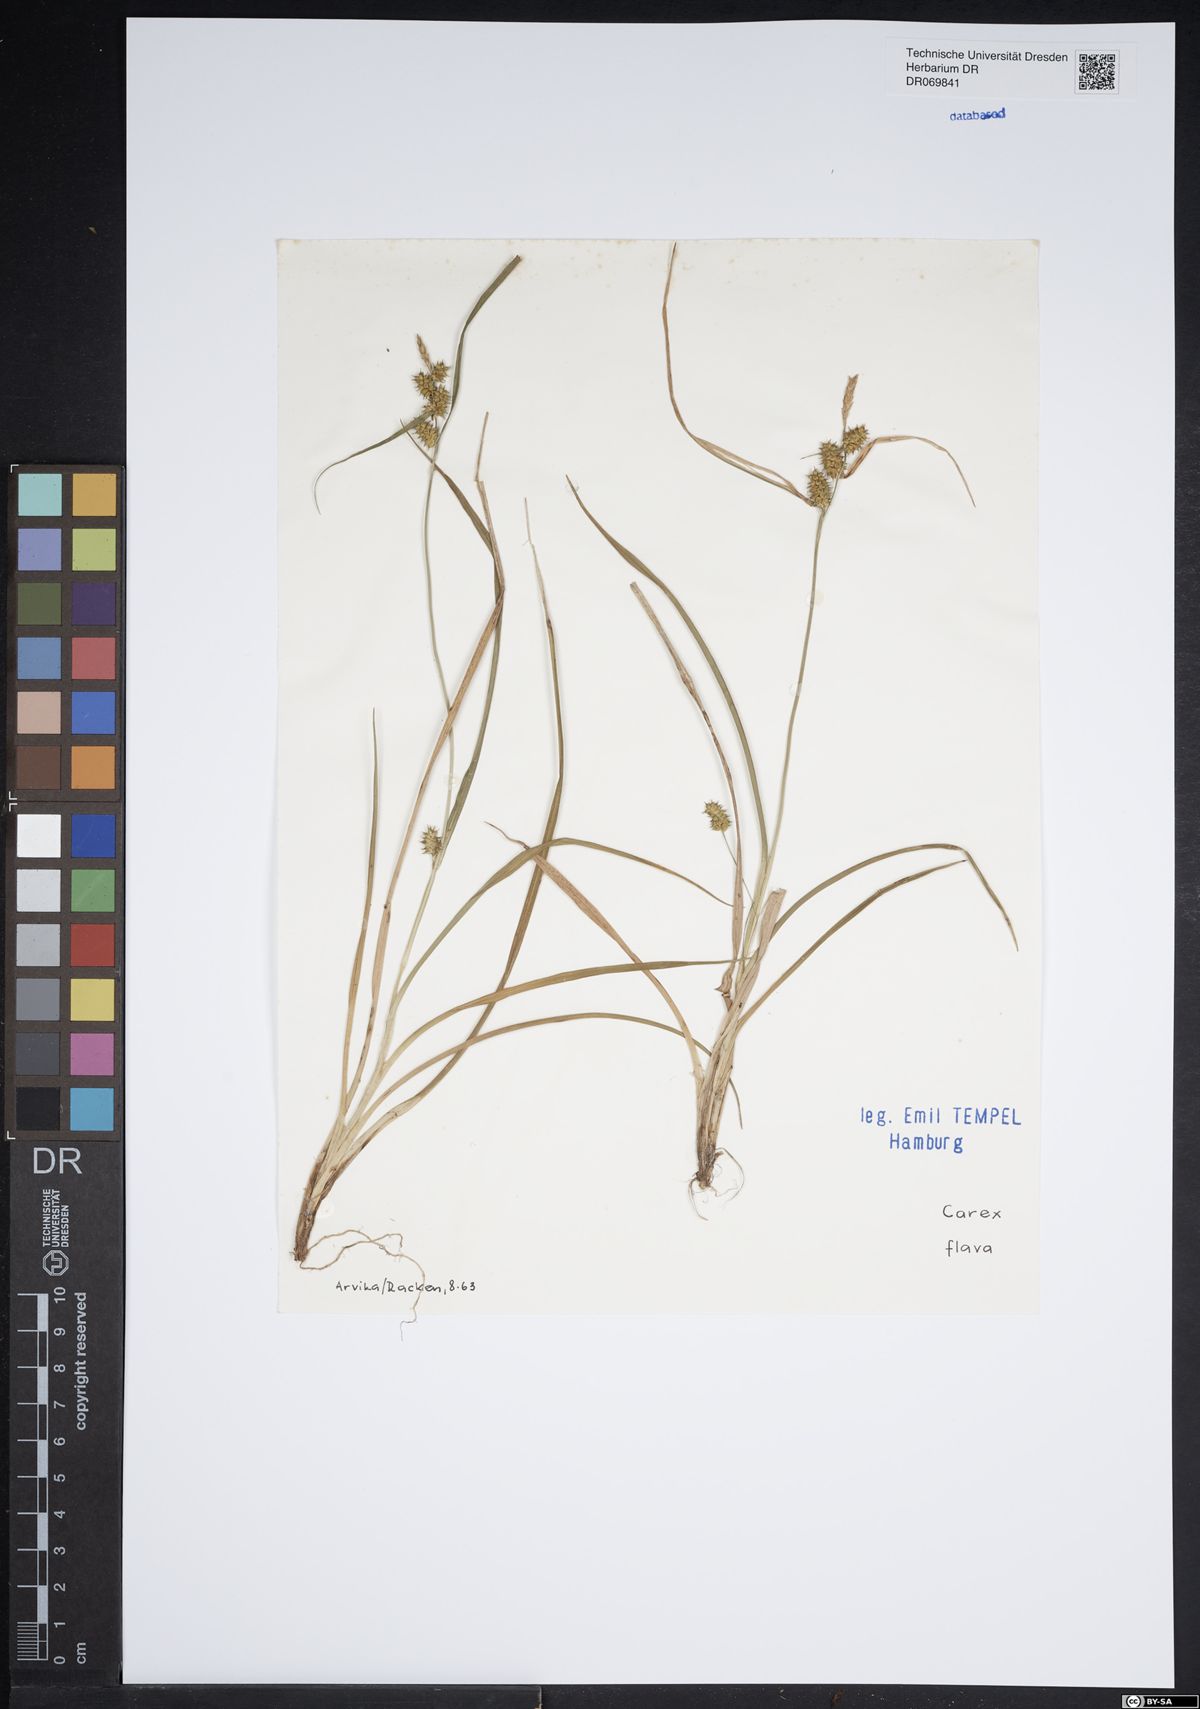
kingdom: Plantae
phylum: Tracheophyta
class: Liliopsida
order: Poales
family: Cyperaceae
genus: Carex
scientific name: Carex flava
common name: Large yellow-sedge
